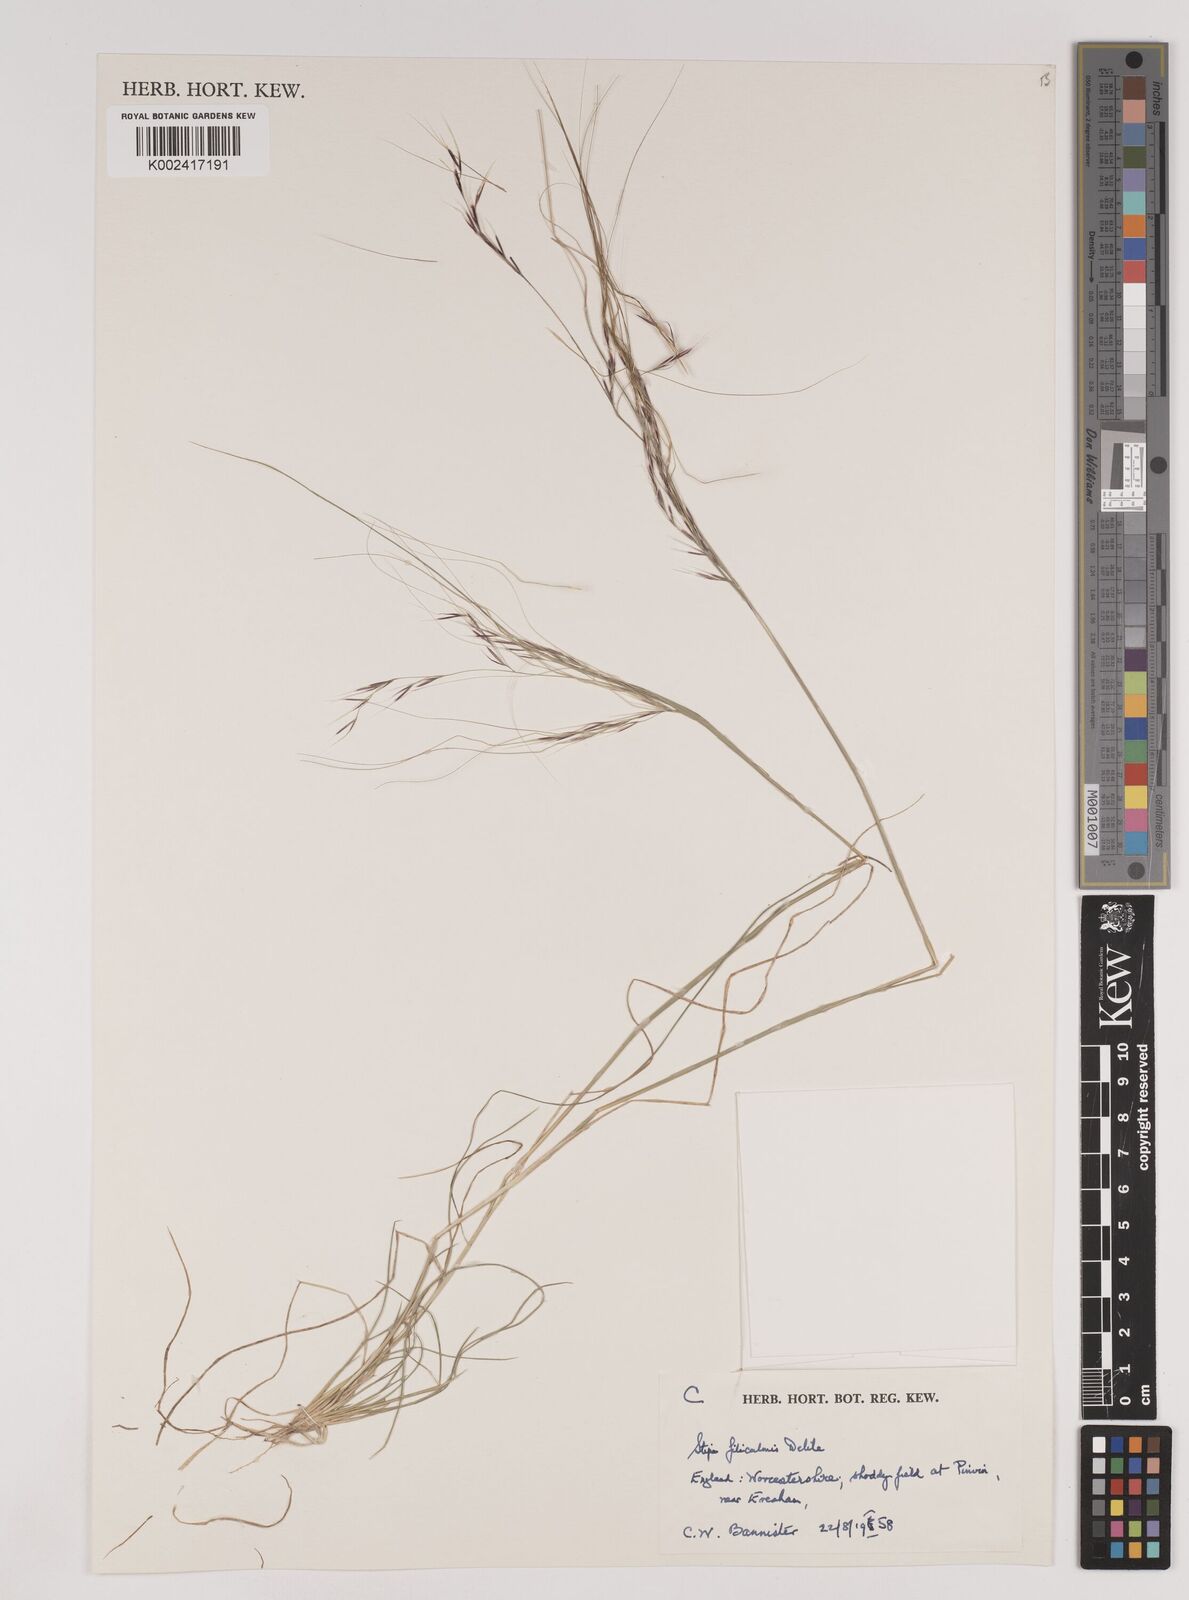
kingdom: Plantae
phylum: Tracheophyta
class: Liliopsida
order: Poales
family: Poaceae
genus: Nassella
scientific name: Nassella filiculmis
